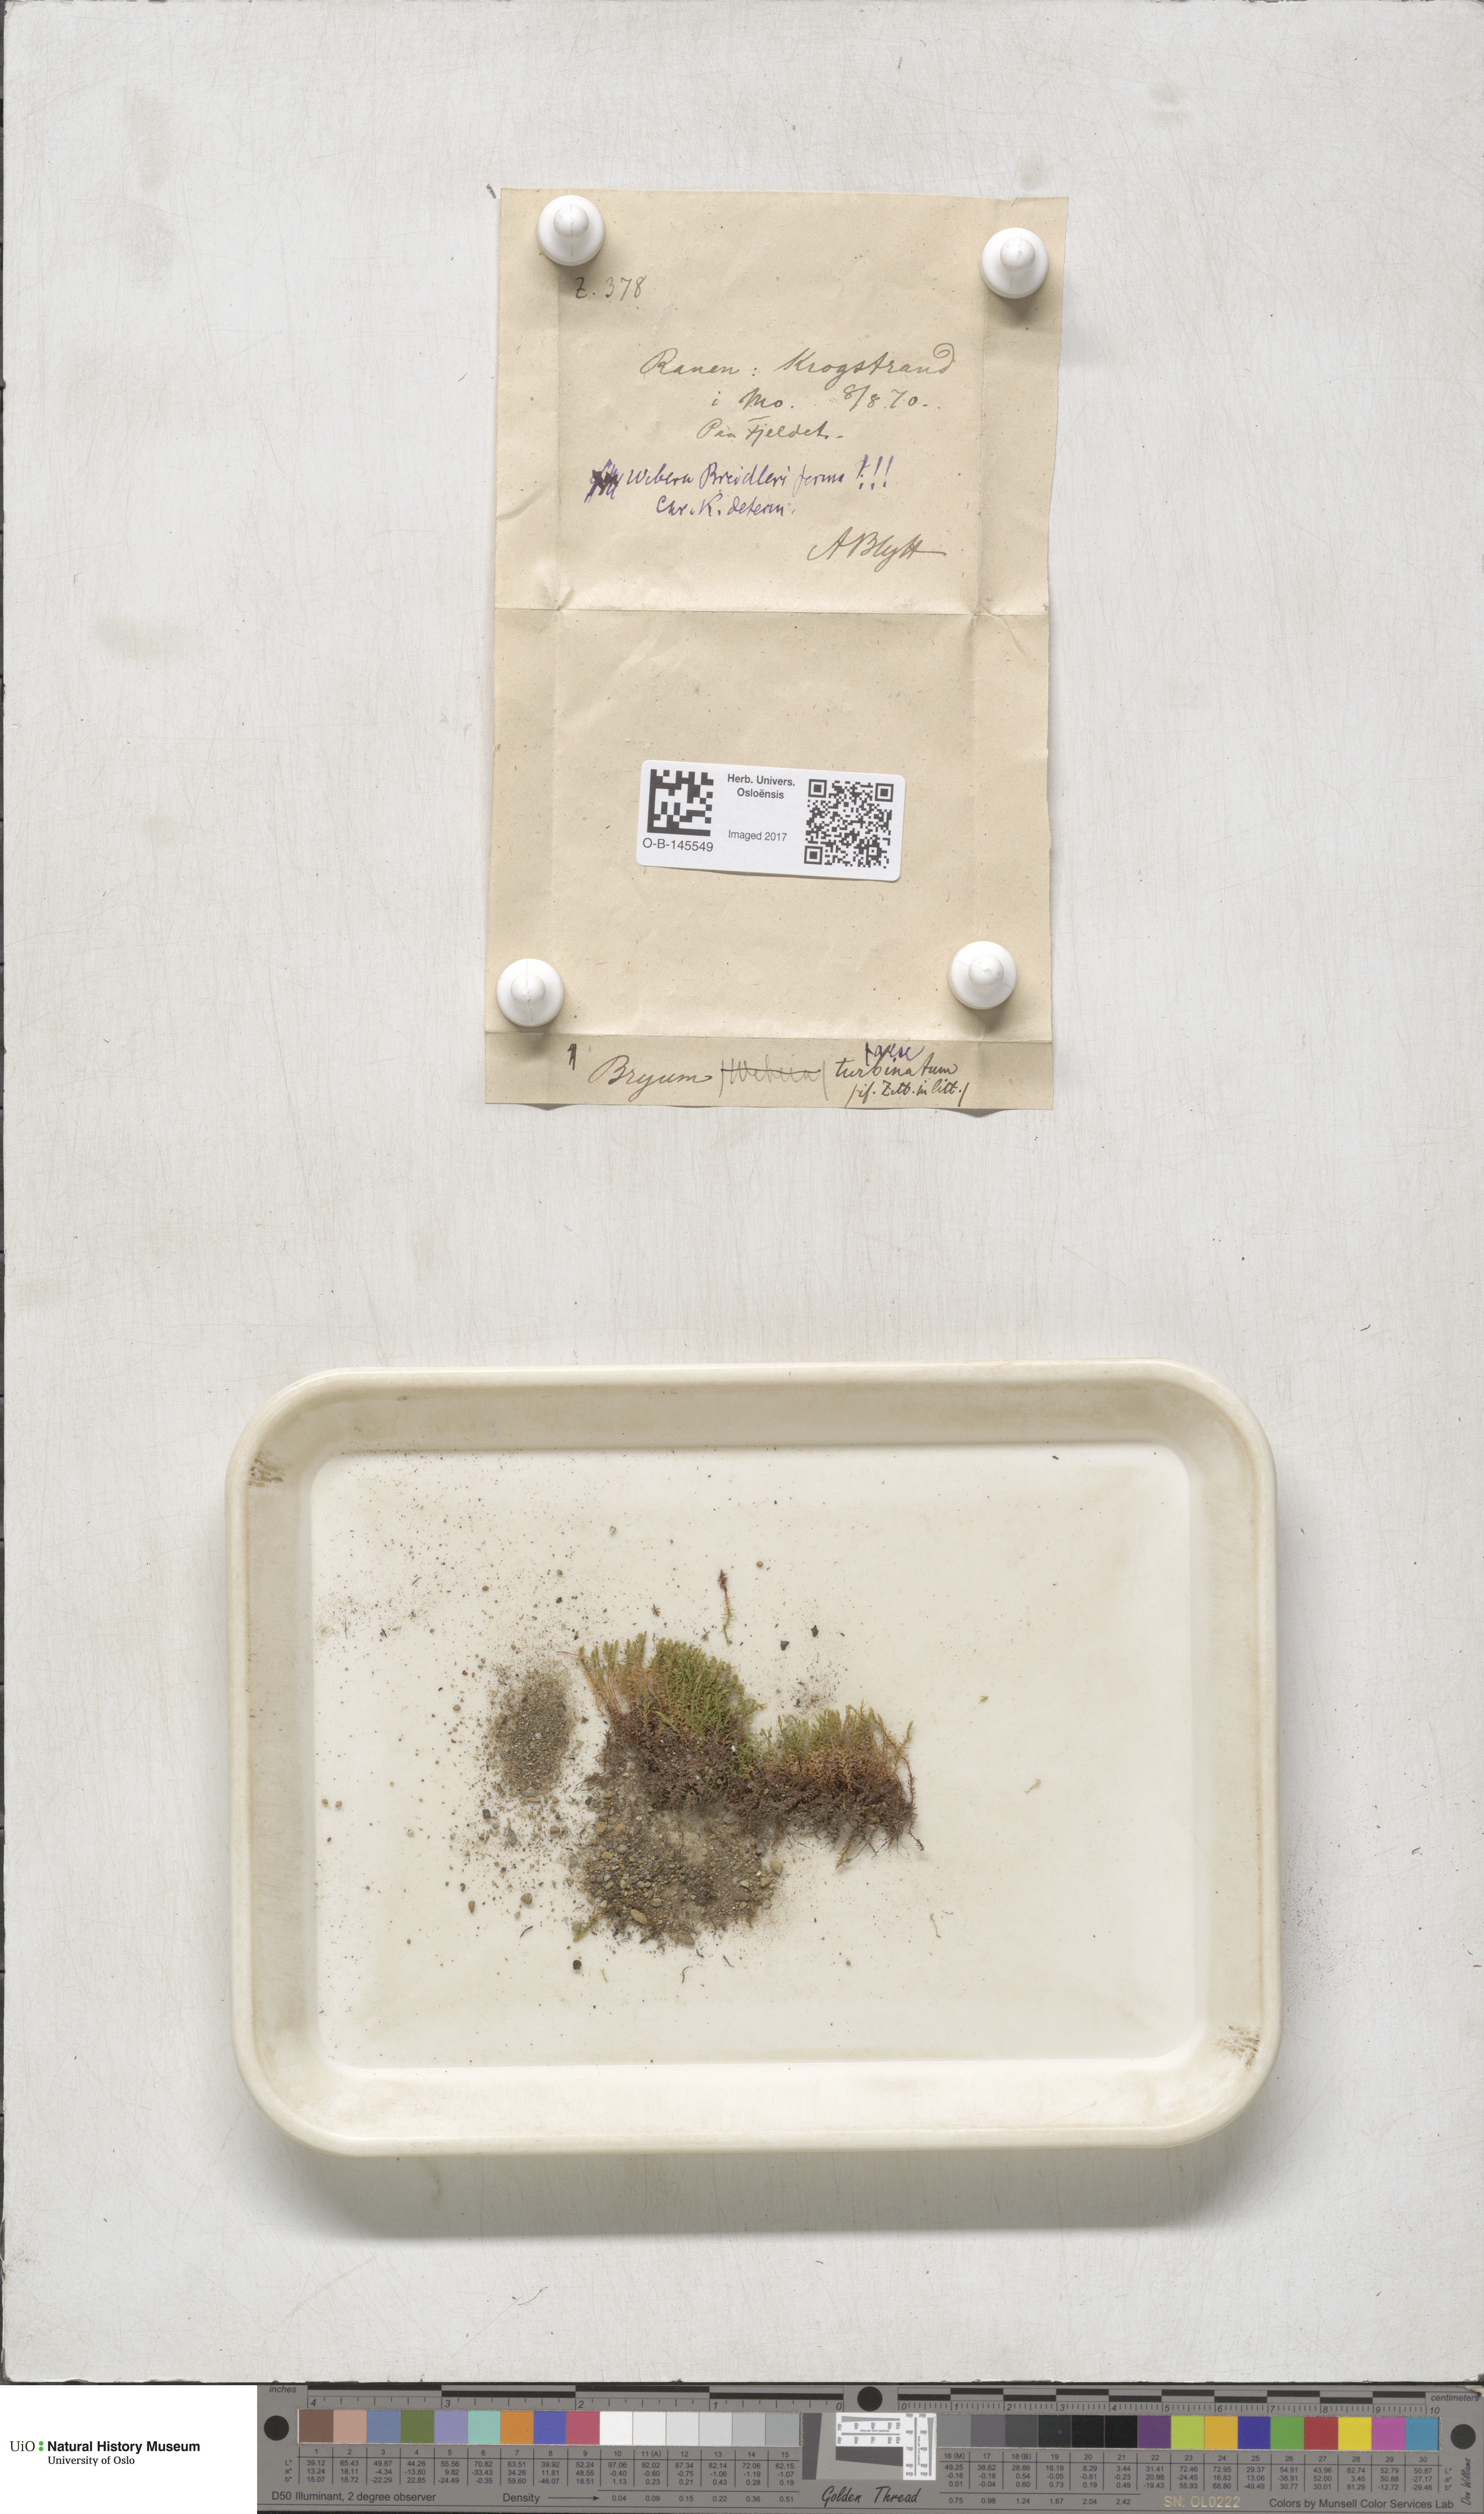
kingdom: Plantae
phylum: Bryophyta
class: Bryopsida
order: Bryales
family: Mniaceae
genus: Pohlia
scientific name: Pohlia ludwigii
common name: Ludwig's thread-moss
